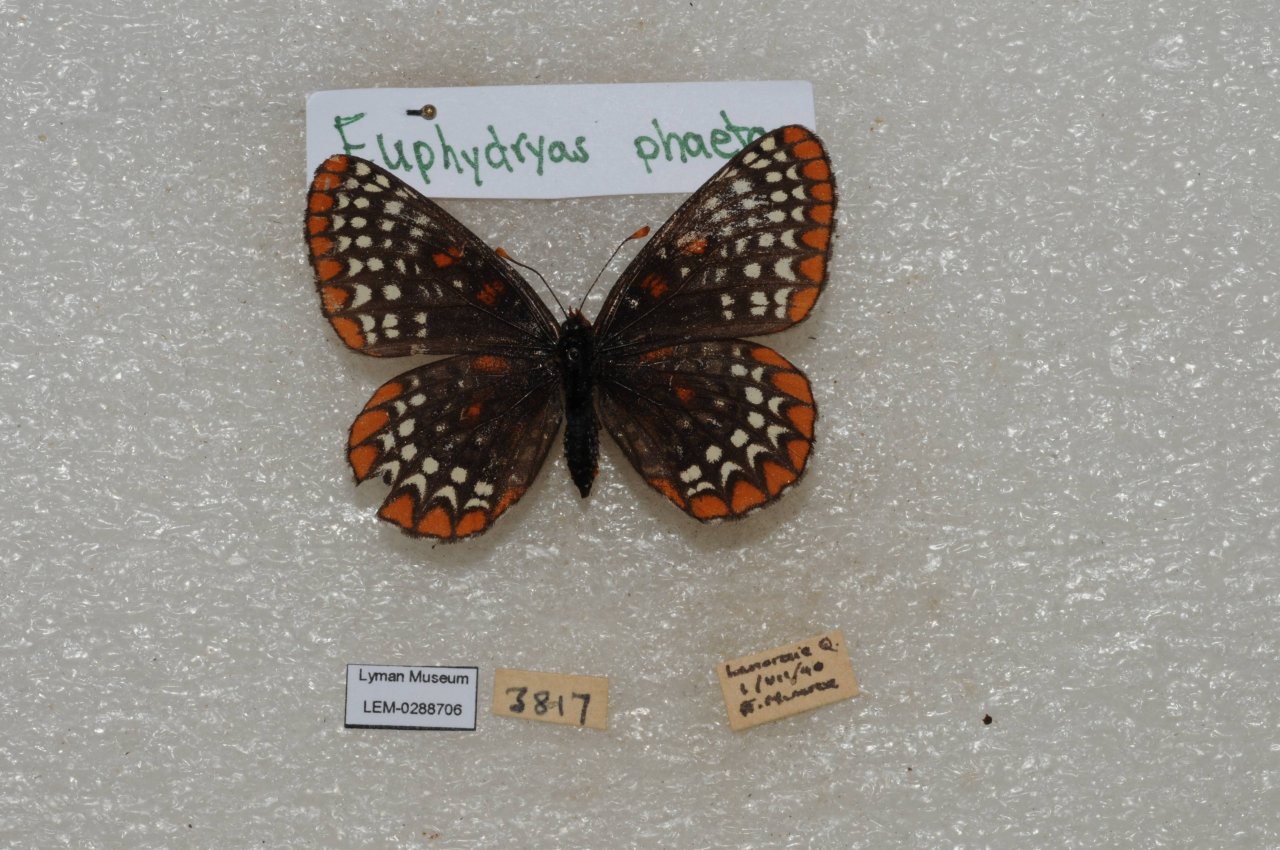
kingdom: Animalia
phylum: Arthropoda
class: Insecta
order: Lepidoptera
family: Nymphalidae
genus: Euphydryas
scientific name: Euphydryas phaeton
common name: Baltimore Checkerspot
